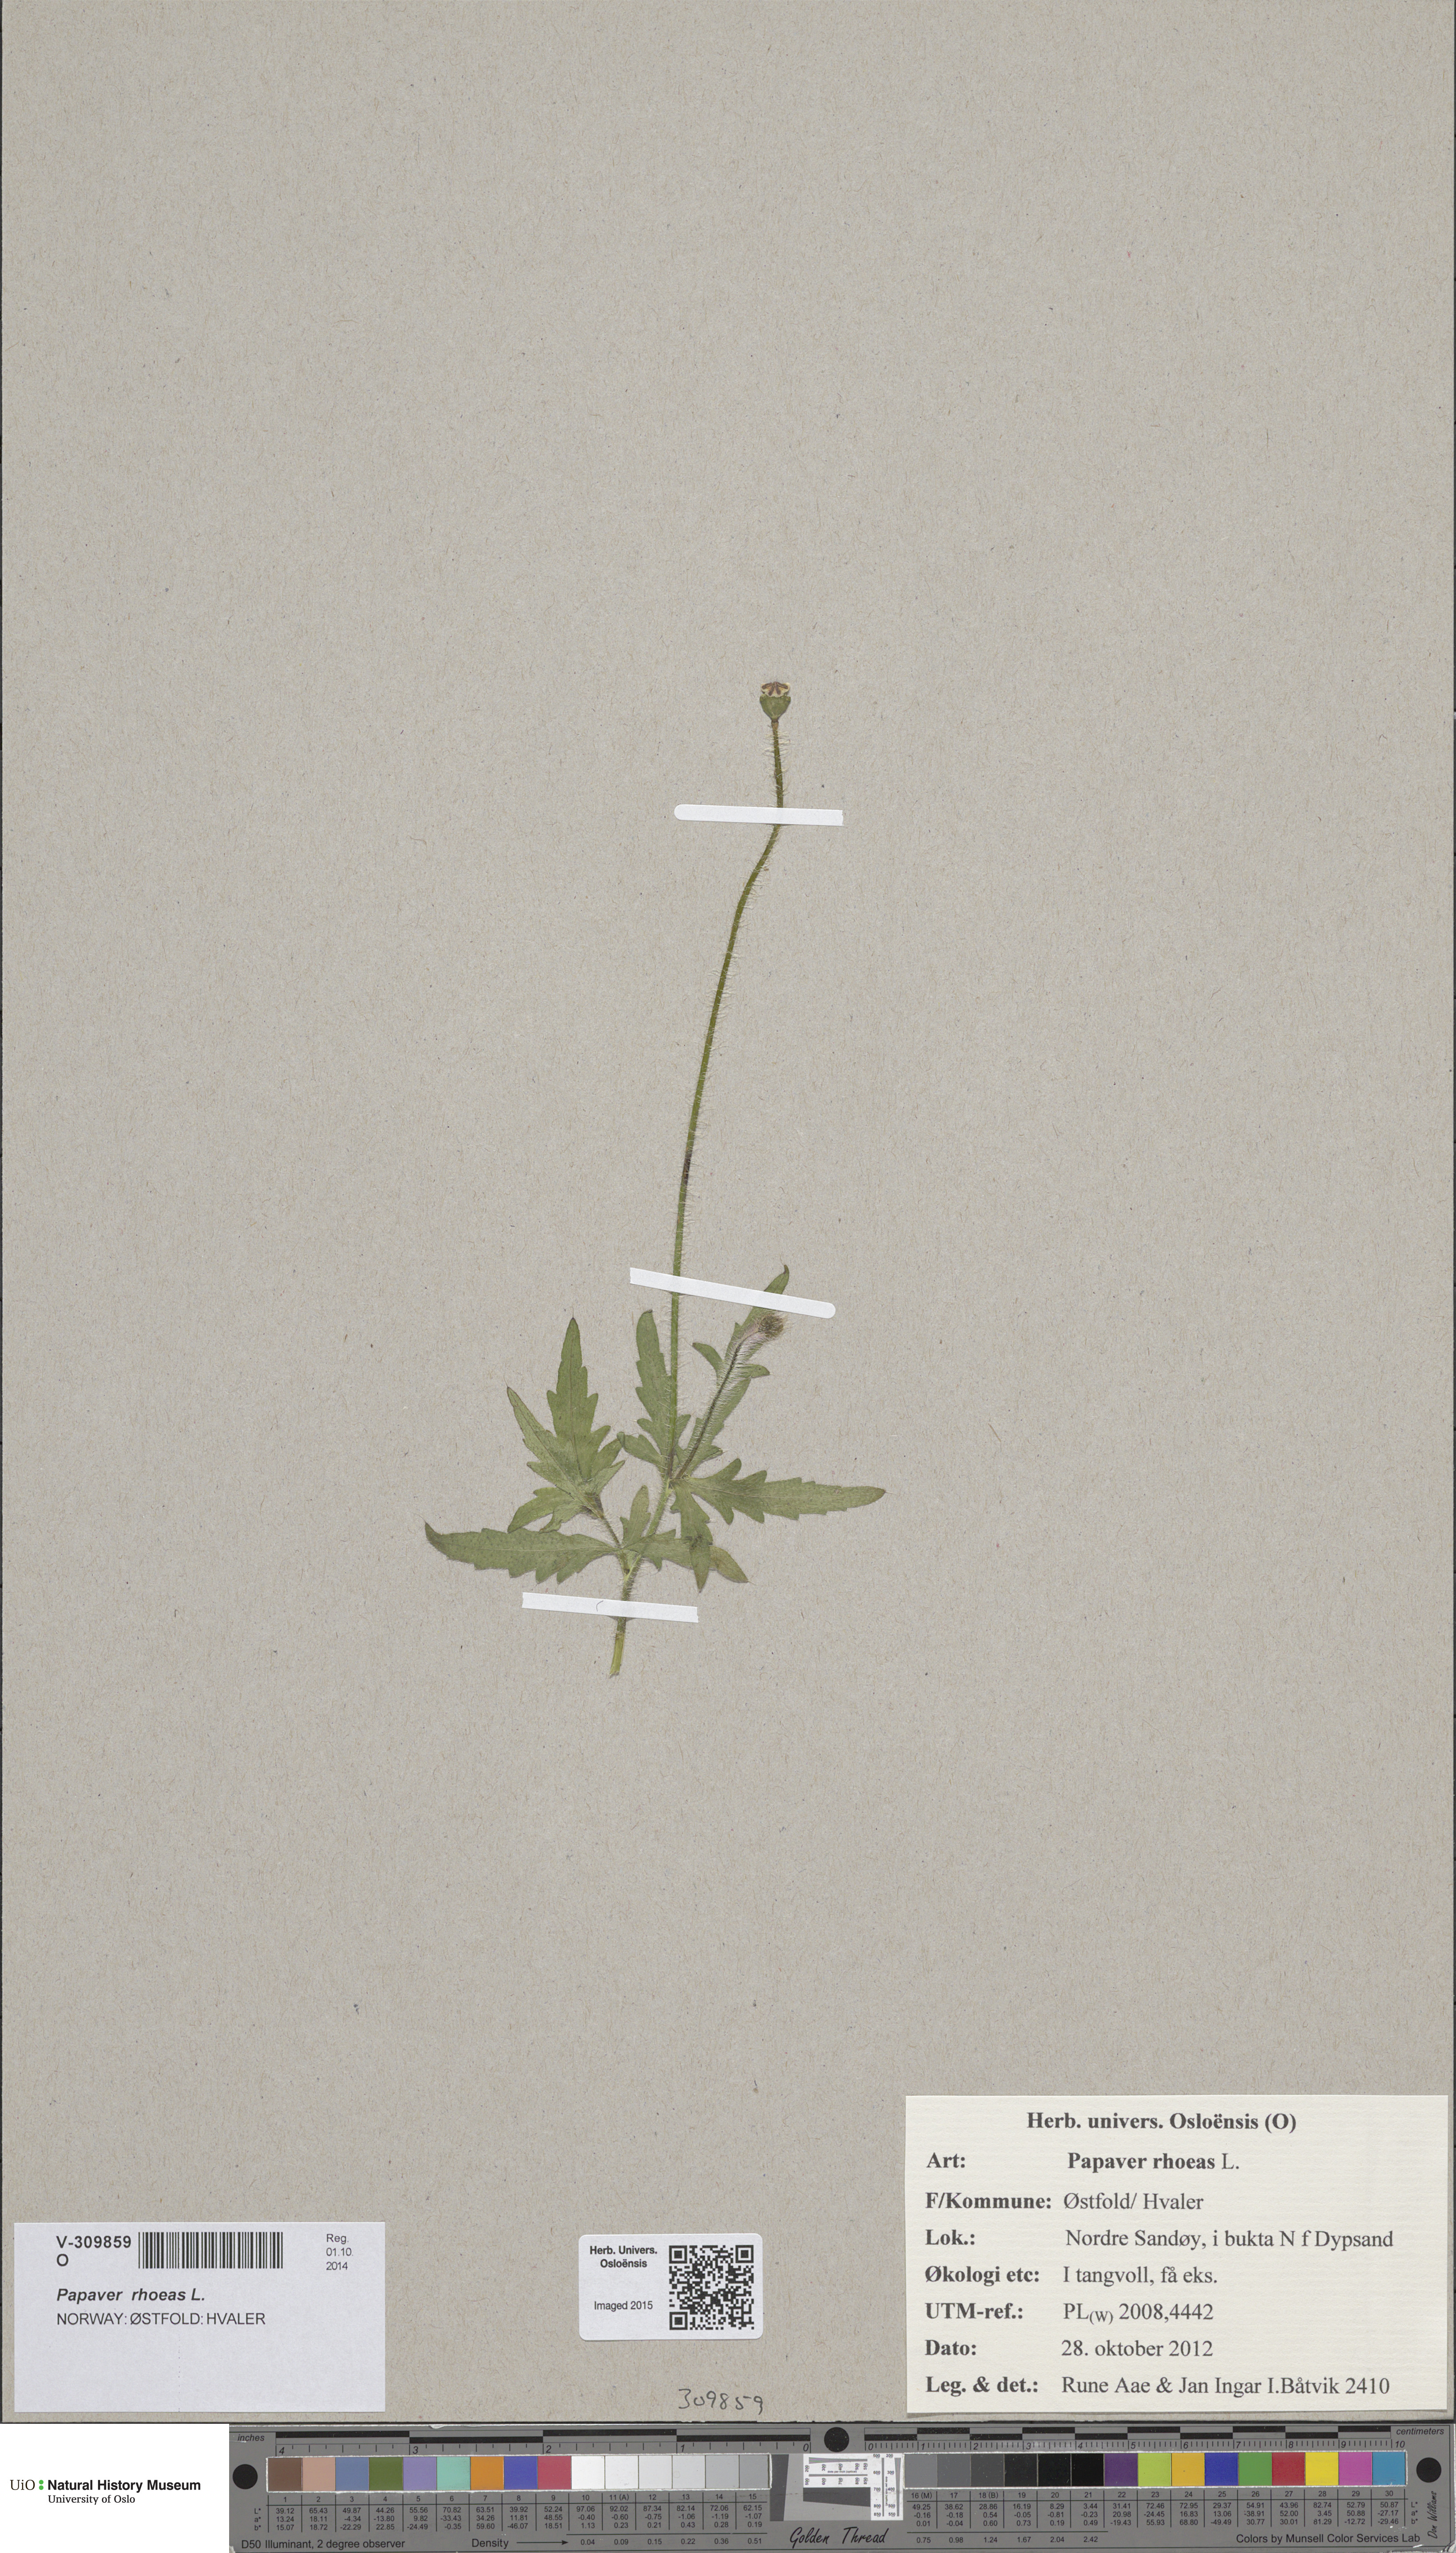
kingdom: Plantae
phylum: Tracheophyta
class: Magnoliopsida
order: Ranunculales
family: Papaveraceae
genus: Papaver
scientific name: Papaver rhoeas
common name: Corn poppy
